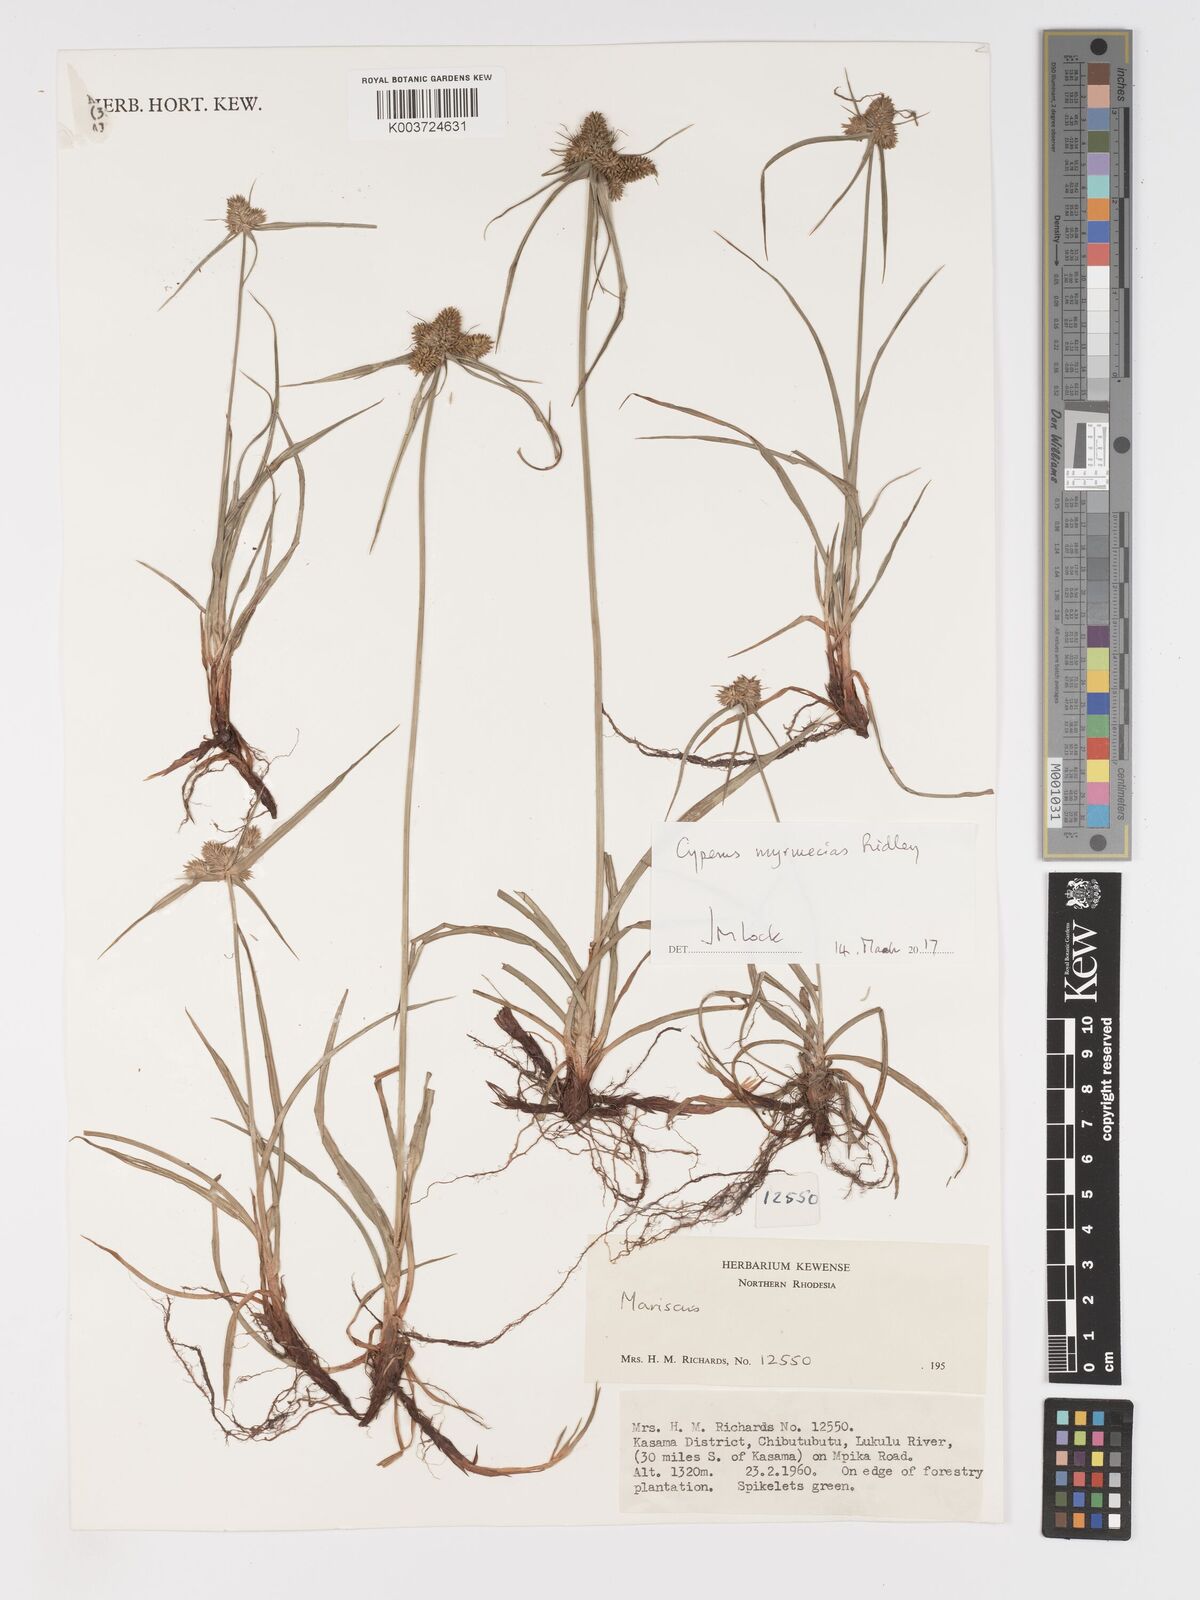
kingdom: Plantae
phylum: Tracheophyta
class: Liliopsida
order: Poales
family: Cyperaceae
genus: Cyperus
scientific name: Cyperus myrmecias
